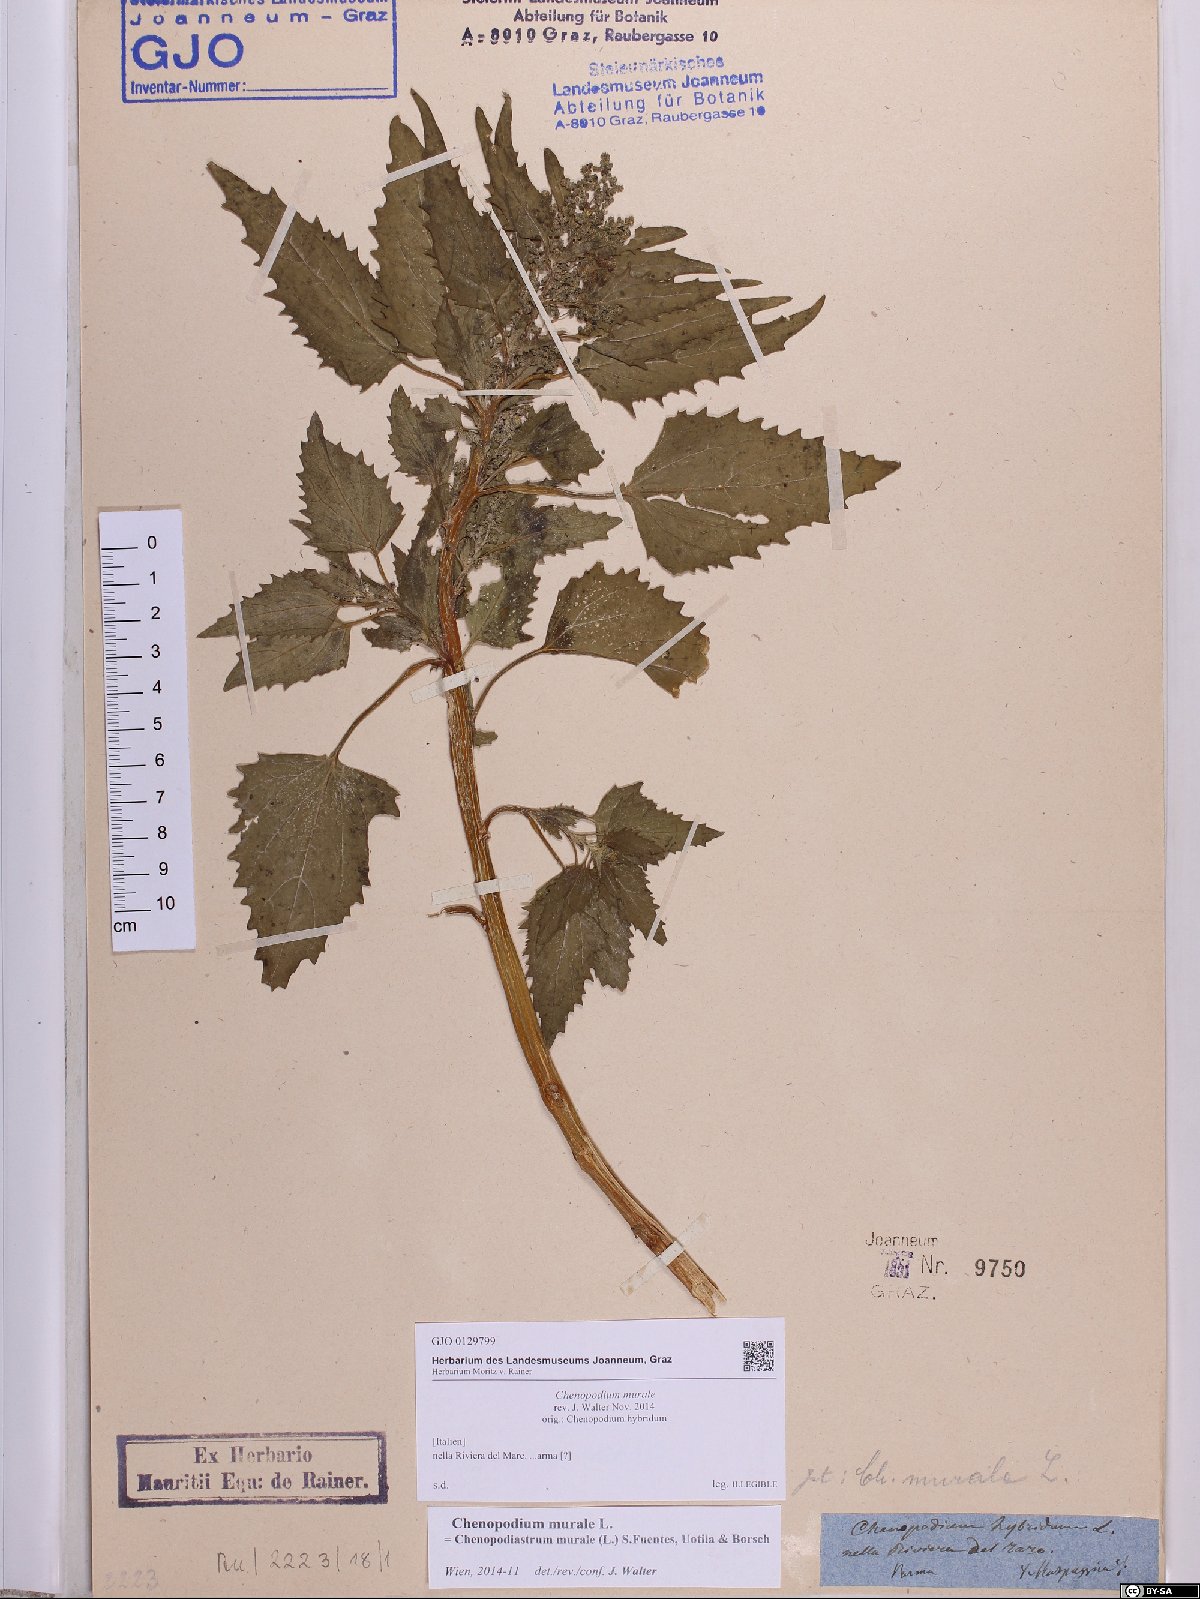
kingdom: Plantae
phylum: Tracheophyta
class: Magnoliopsida
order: Caryophyllales
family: Amaranthaceae
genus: Chenopodiastrum
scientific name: Chenopodiastrum murale
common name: Sowbane
